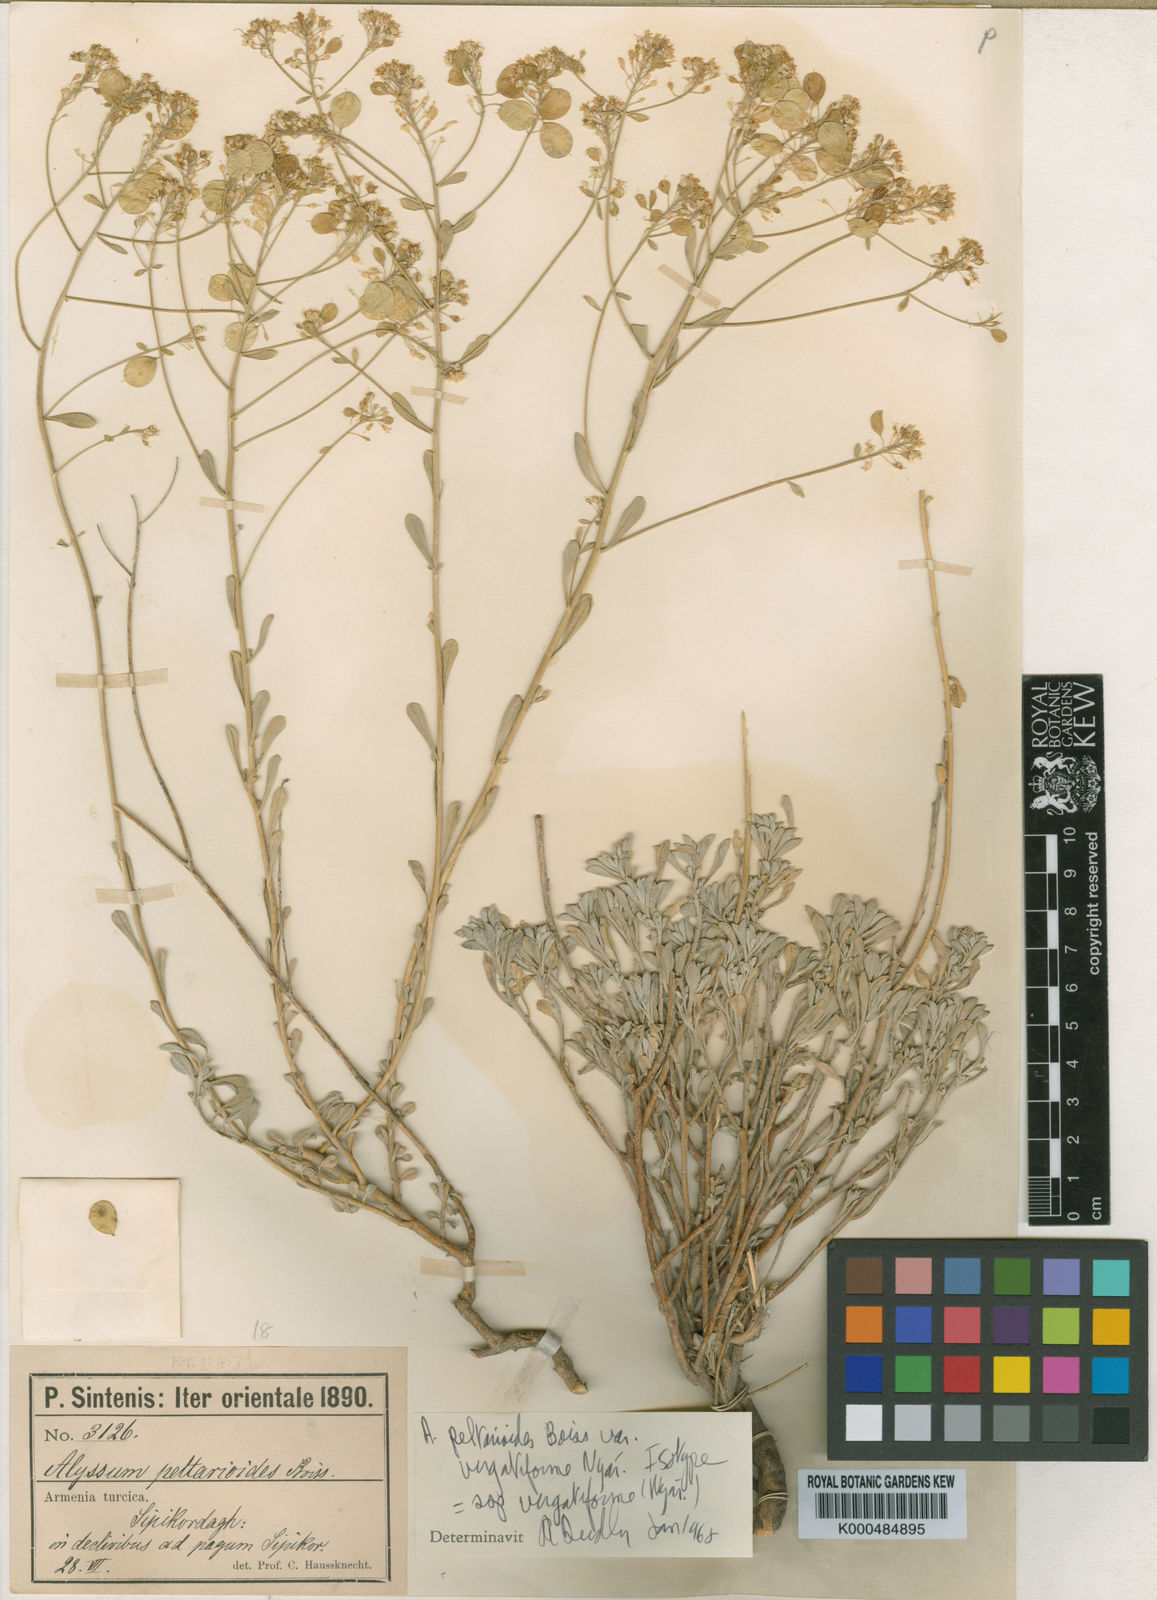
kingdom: Plantae
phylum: Tracheophyta
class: Magnoliopsida
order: Brassicales
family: Brassicaceae
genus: Odontarrhena
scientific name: Odontarrhena peltarioidea
